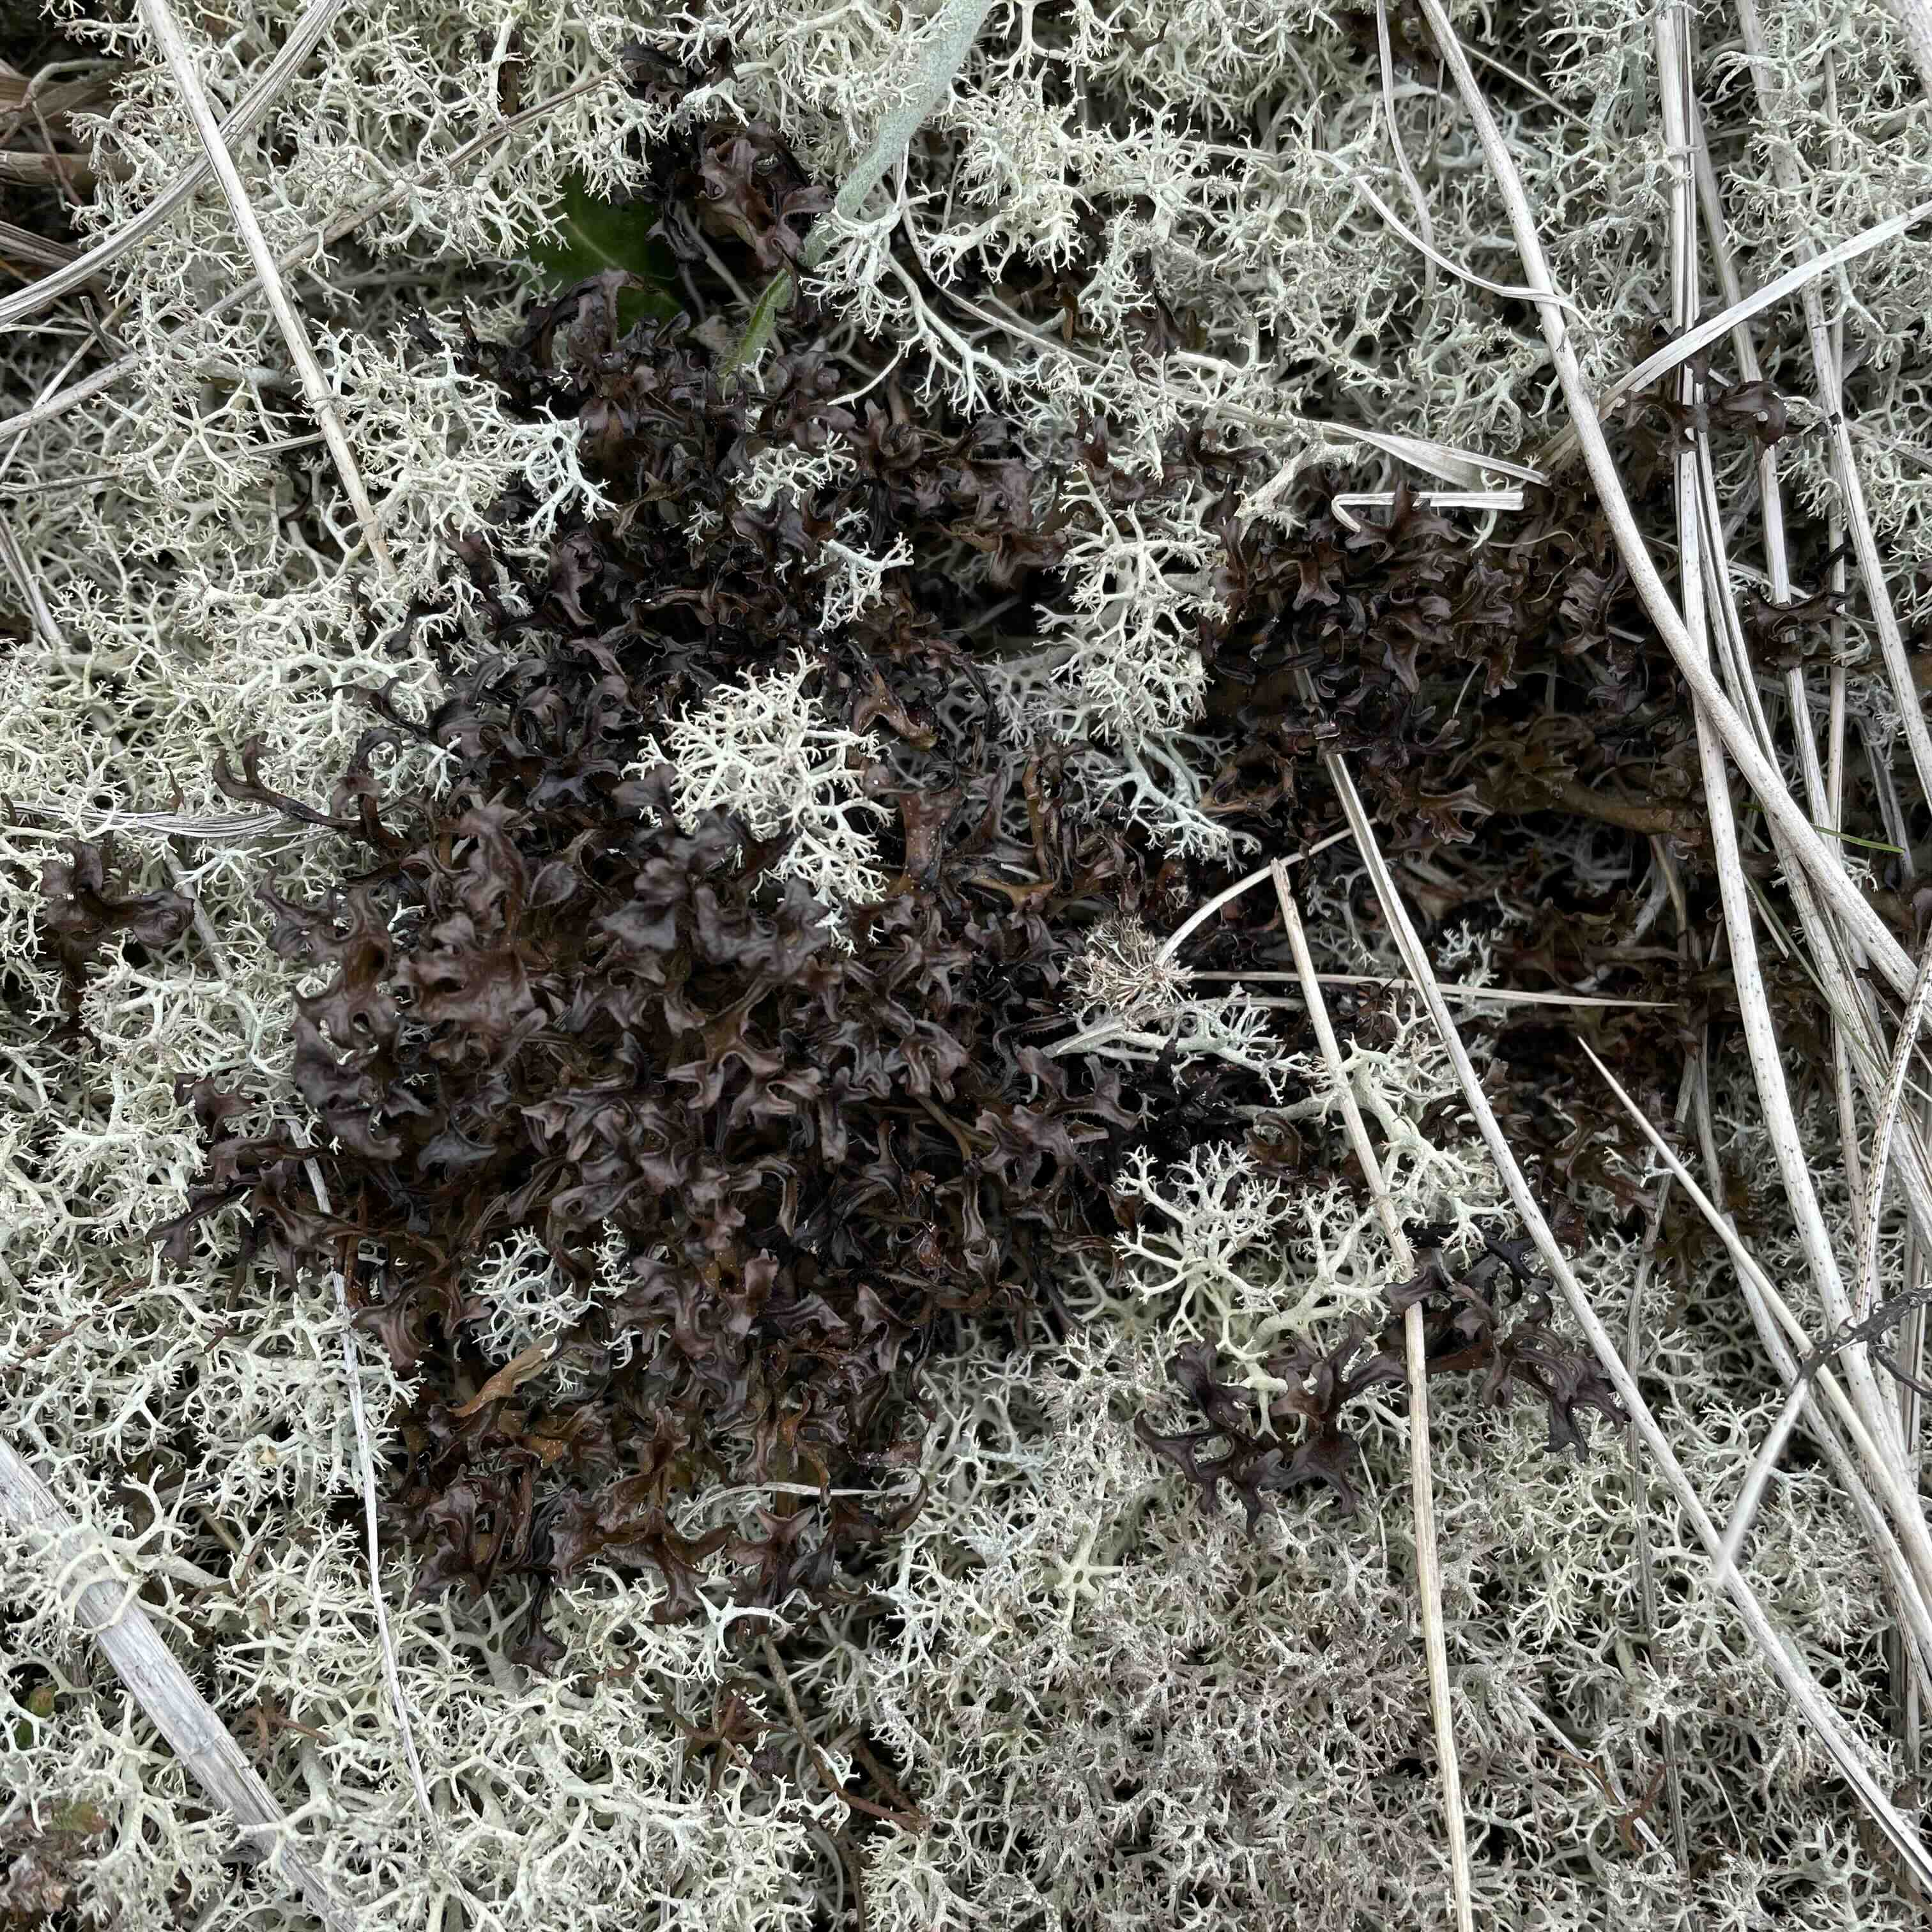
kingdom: Fungi
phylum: Ascomycota
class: Lecanoromycetes
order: Lecanorales
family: Parmeliaceae
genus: Cetraria
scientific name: Cetraria islandica
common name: islandsk kruslav
